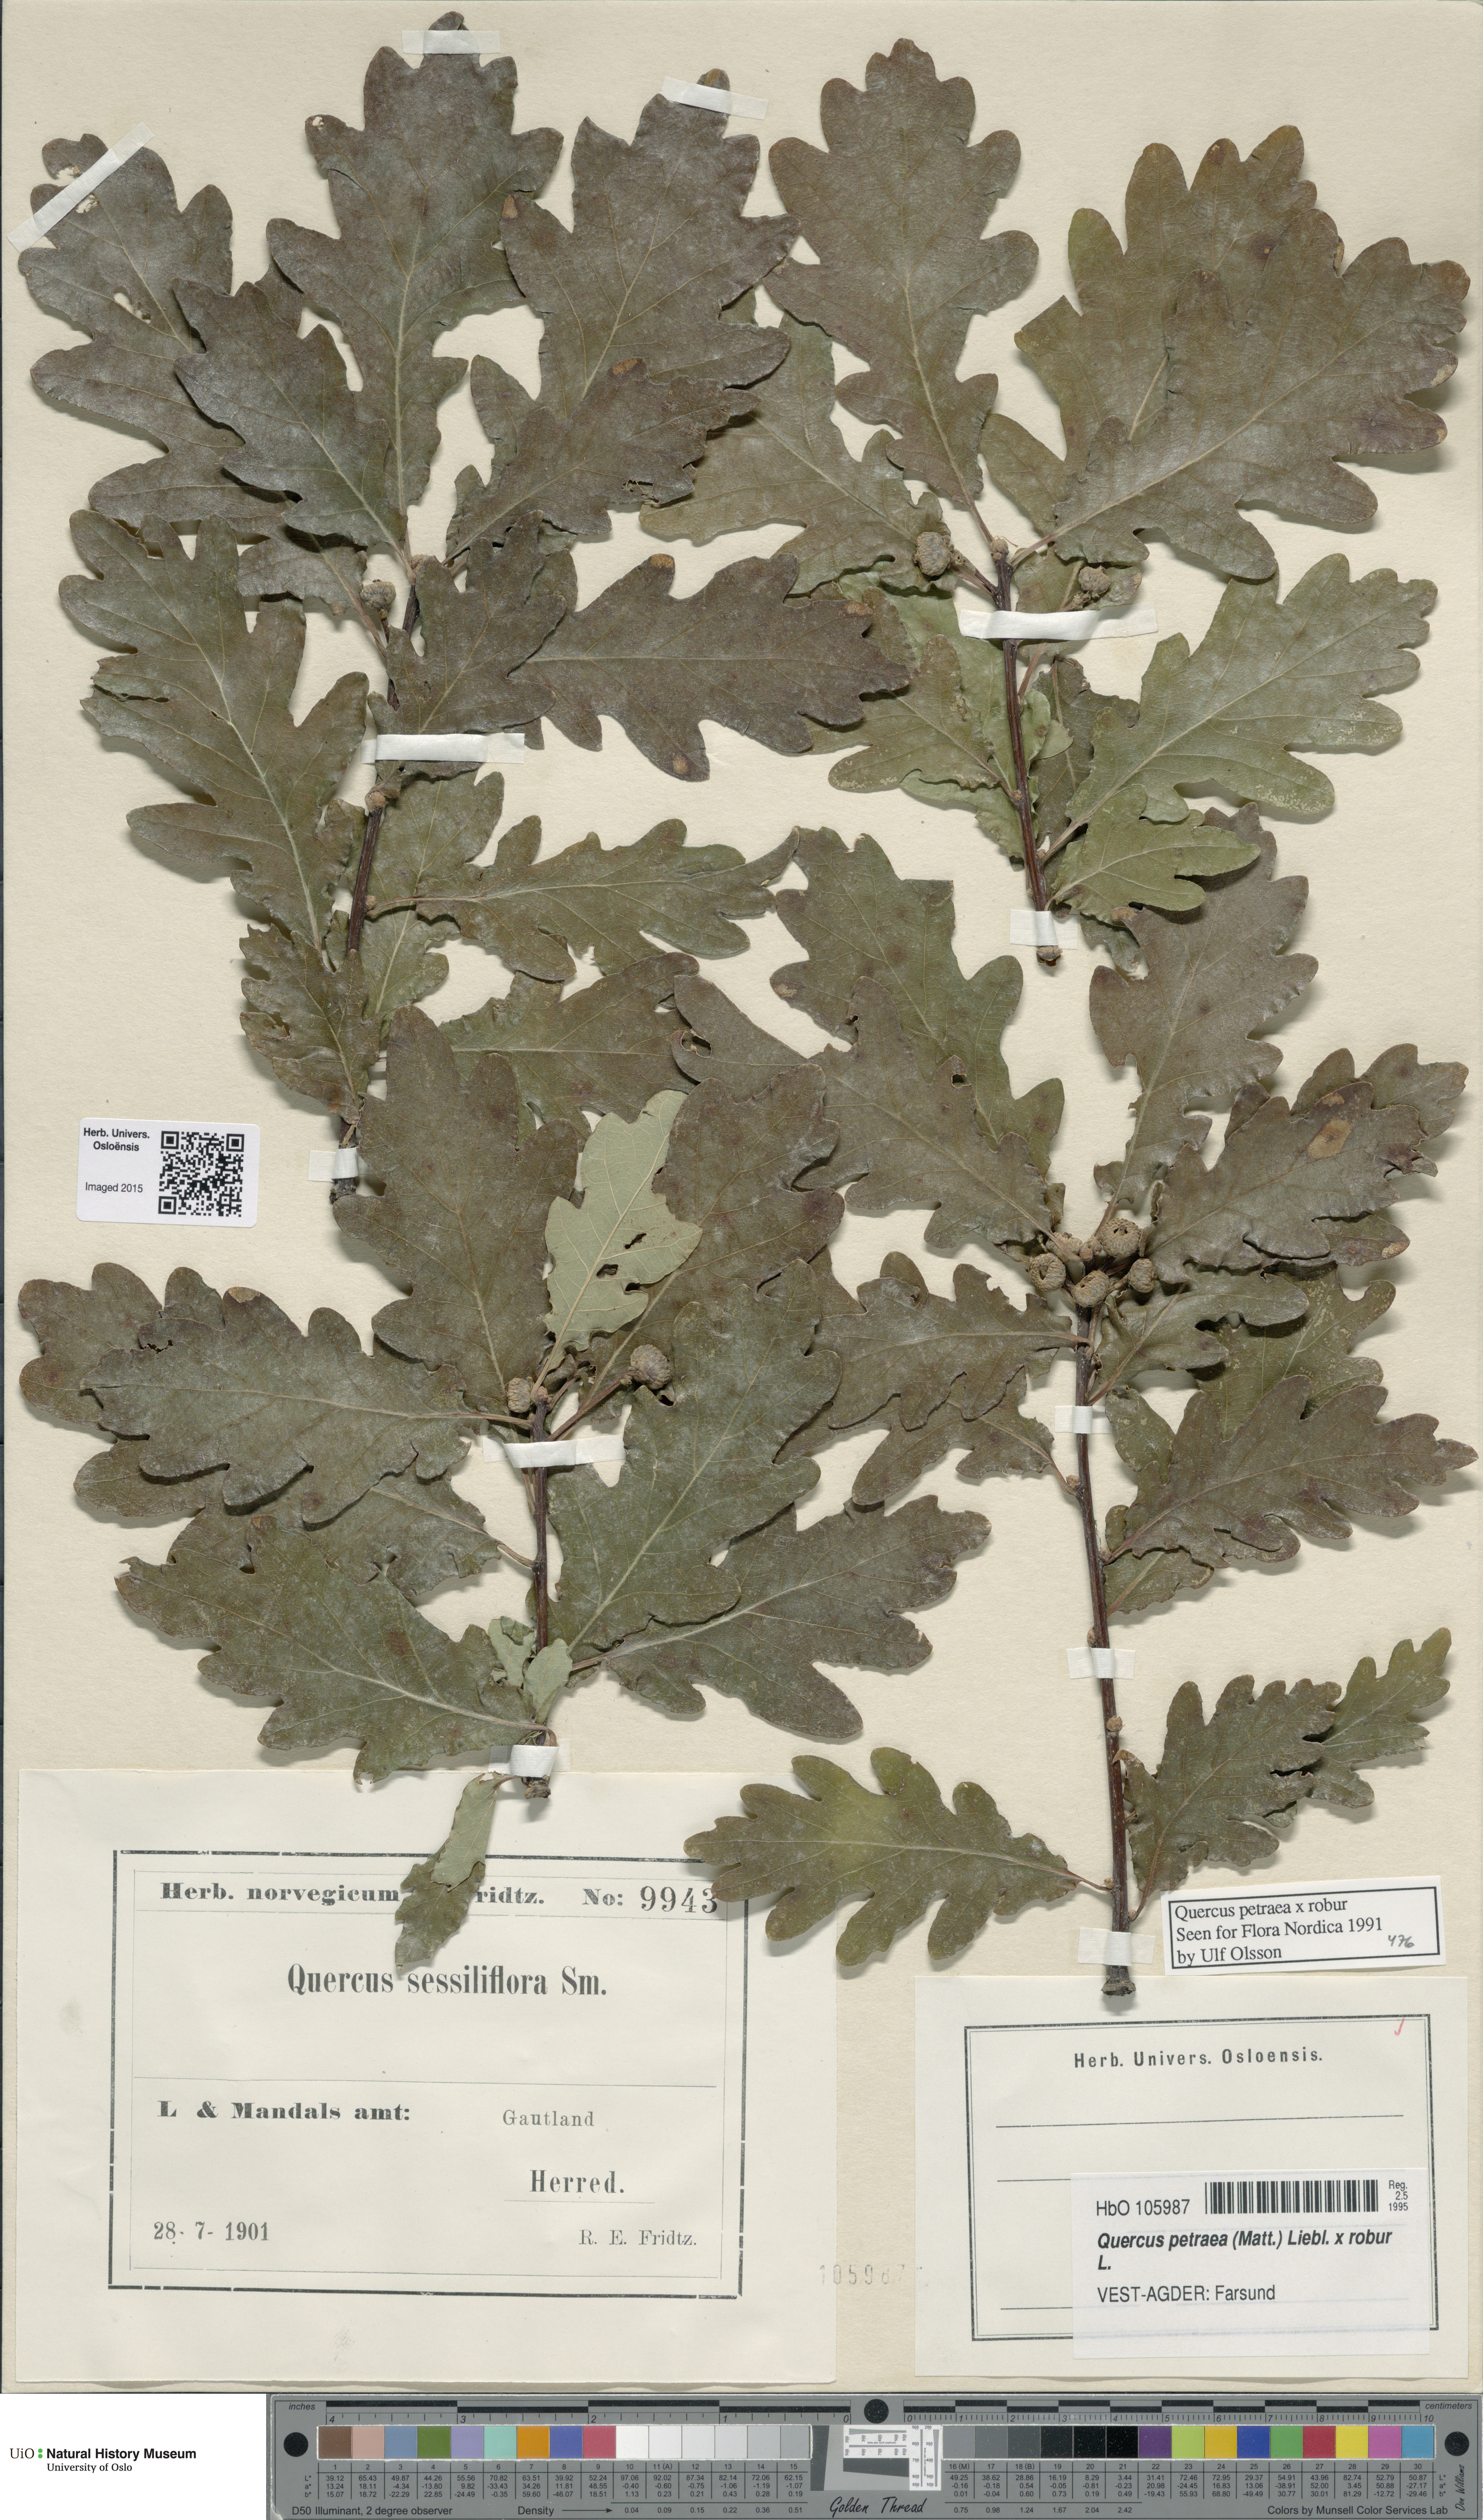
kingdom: Plantae
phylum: Tracheophyta
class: Magnoliopsida
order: Fagales
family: Fagaceae
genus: Quercus
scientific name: Quercus
